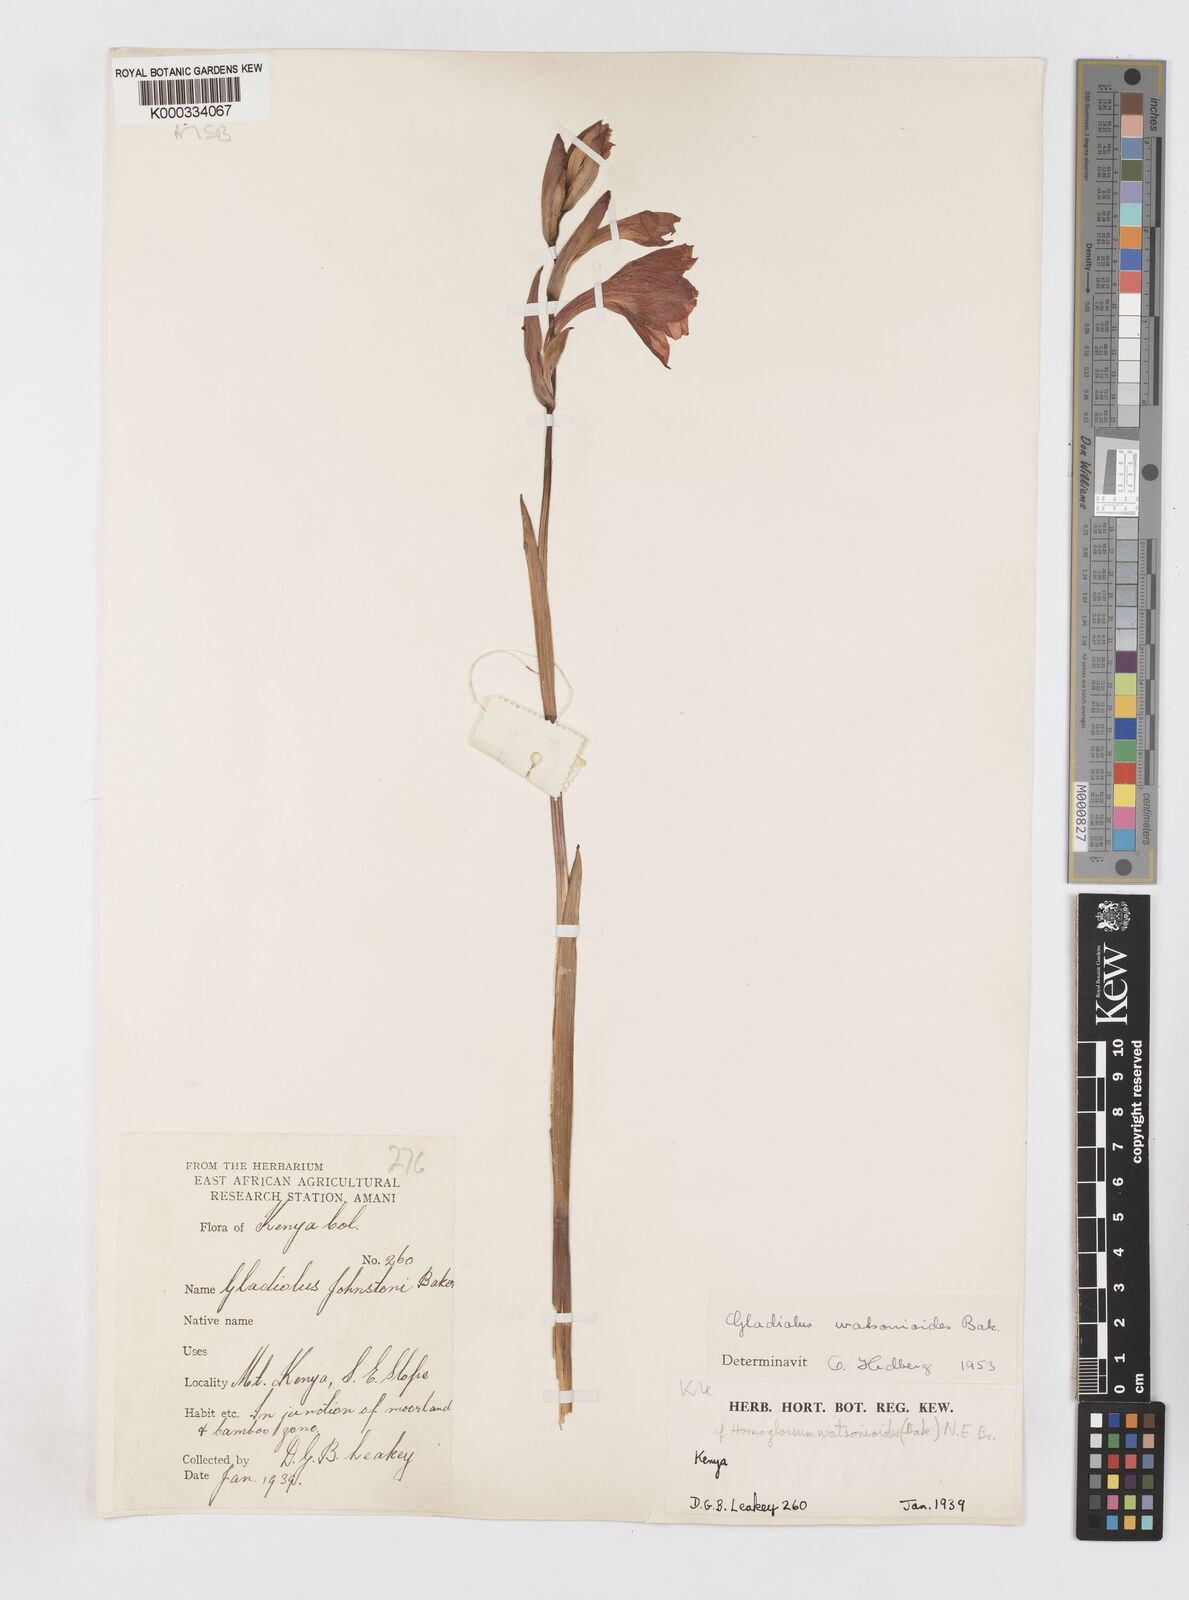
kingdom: Plantae
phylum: Tracheophyta
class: Liliopsida
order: Asparagales
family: Iridaceae
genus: Gladiolus
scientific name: Gladiolus watsonioides
